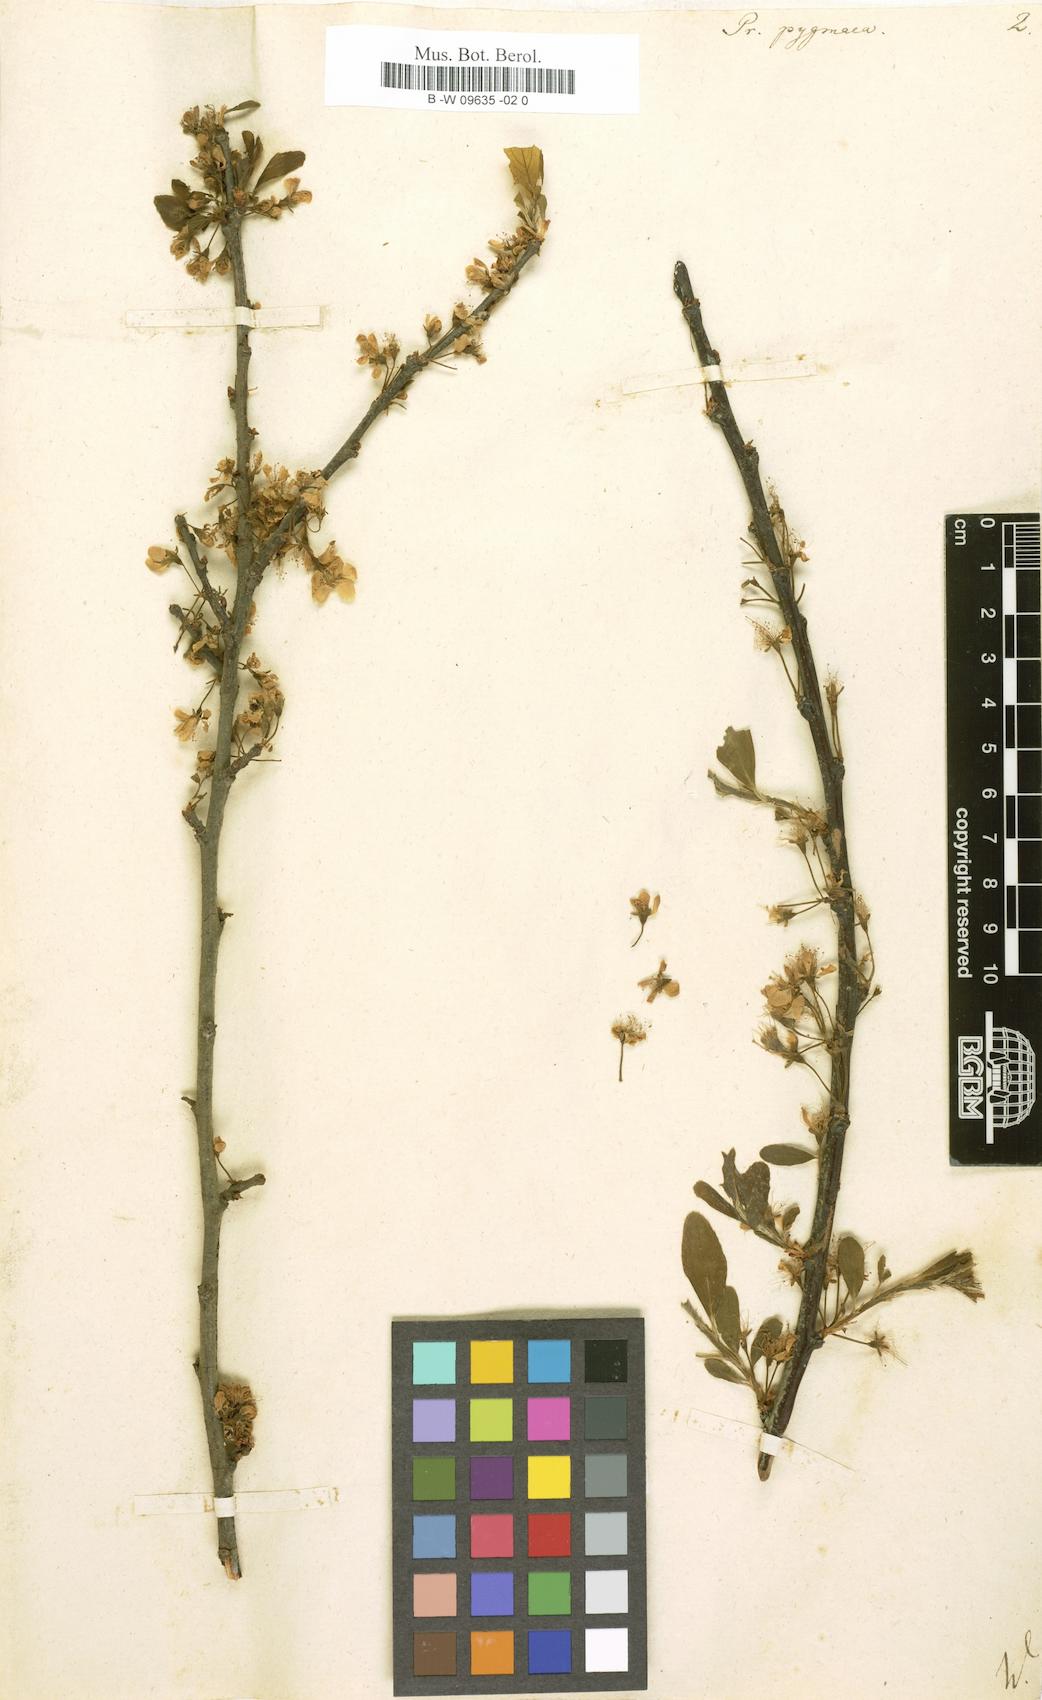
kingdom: Plantae
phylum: Tracheophyta
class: Magnoliopsida
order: Rosales
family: Rosaceae
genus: Prunus
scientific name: Prunus maritima
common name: Beach plum
